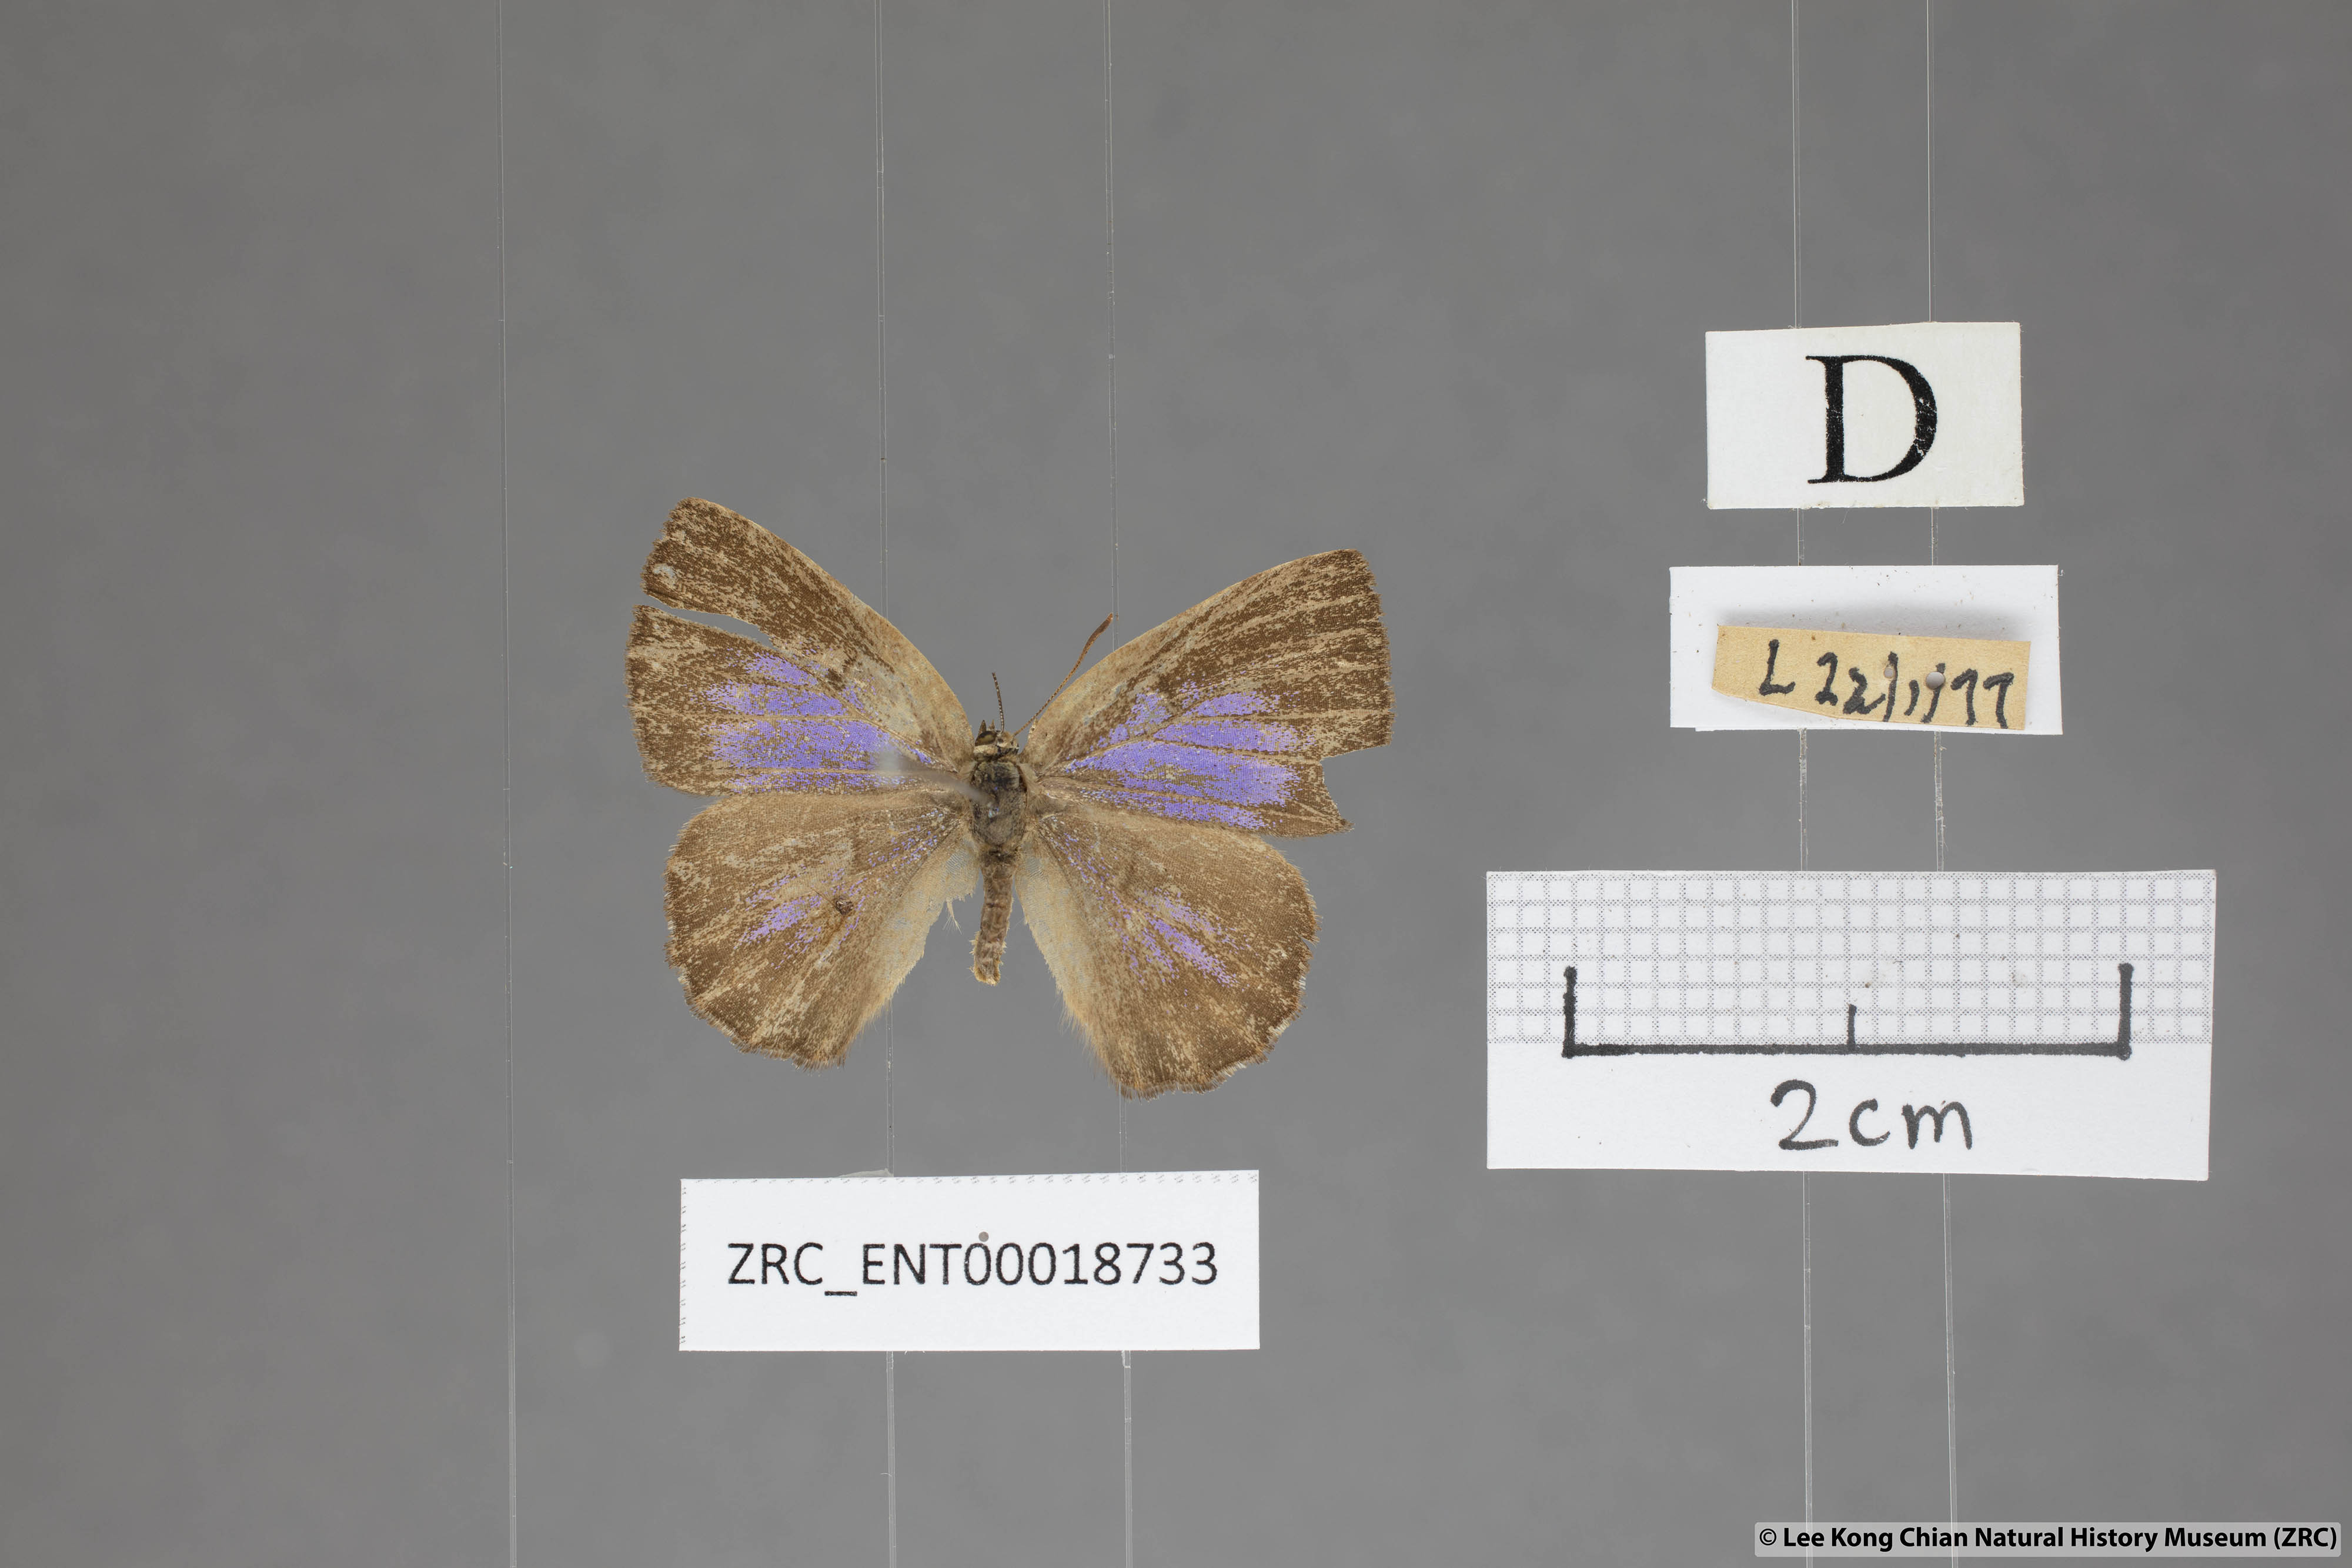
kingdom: Animalia
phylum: Arthropoda
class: Insecta
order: Lepidoptera
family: Lycaenidae
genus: Deramas
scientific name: Deramas livena
